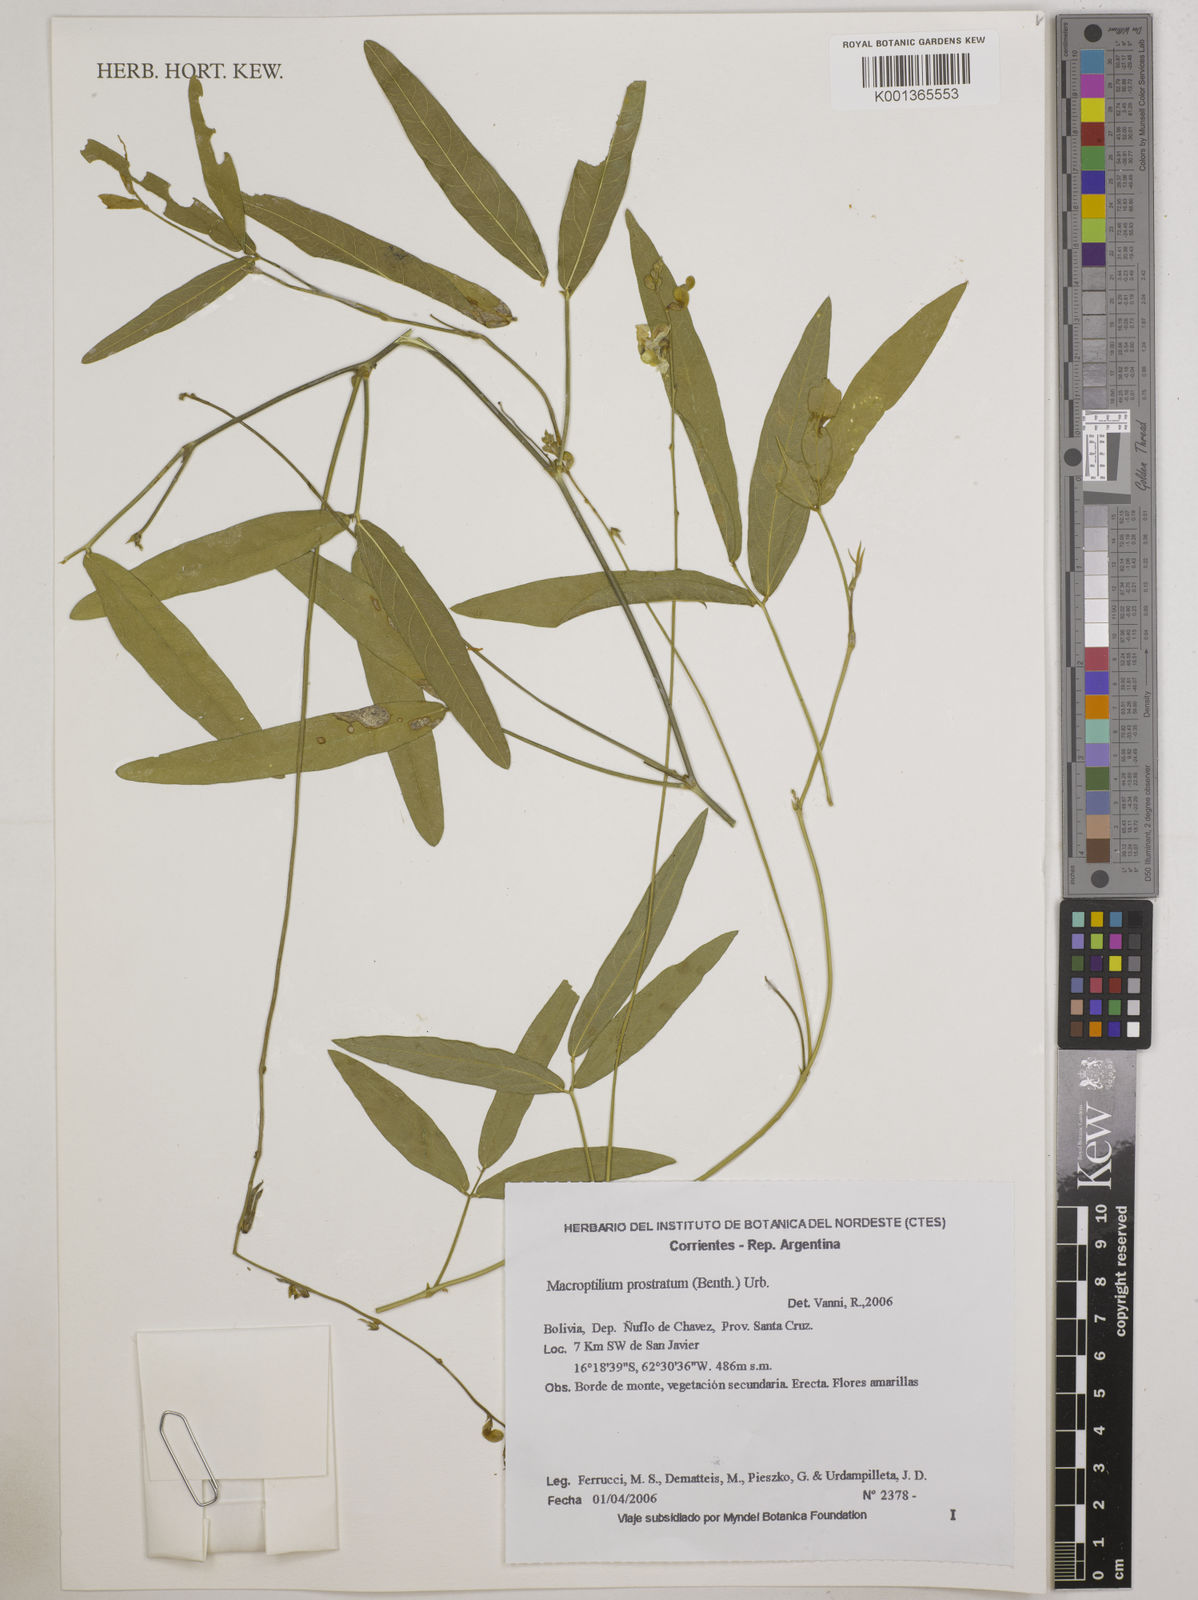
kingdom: Plantae
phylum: Tracheophyta
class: Magnoliopsida
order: Fabales
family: Fabaceae
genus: Macroptilium
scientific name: Macroptilium prostratum
